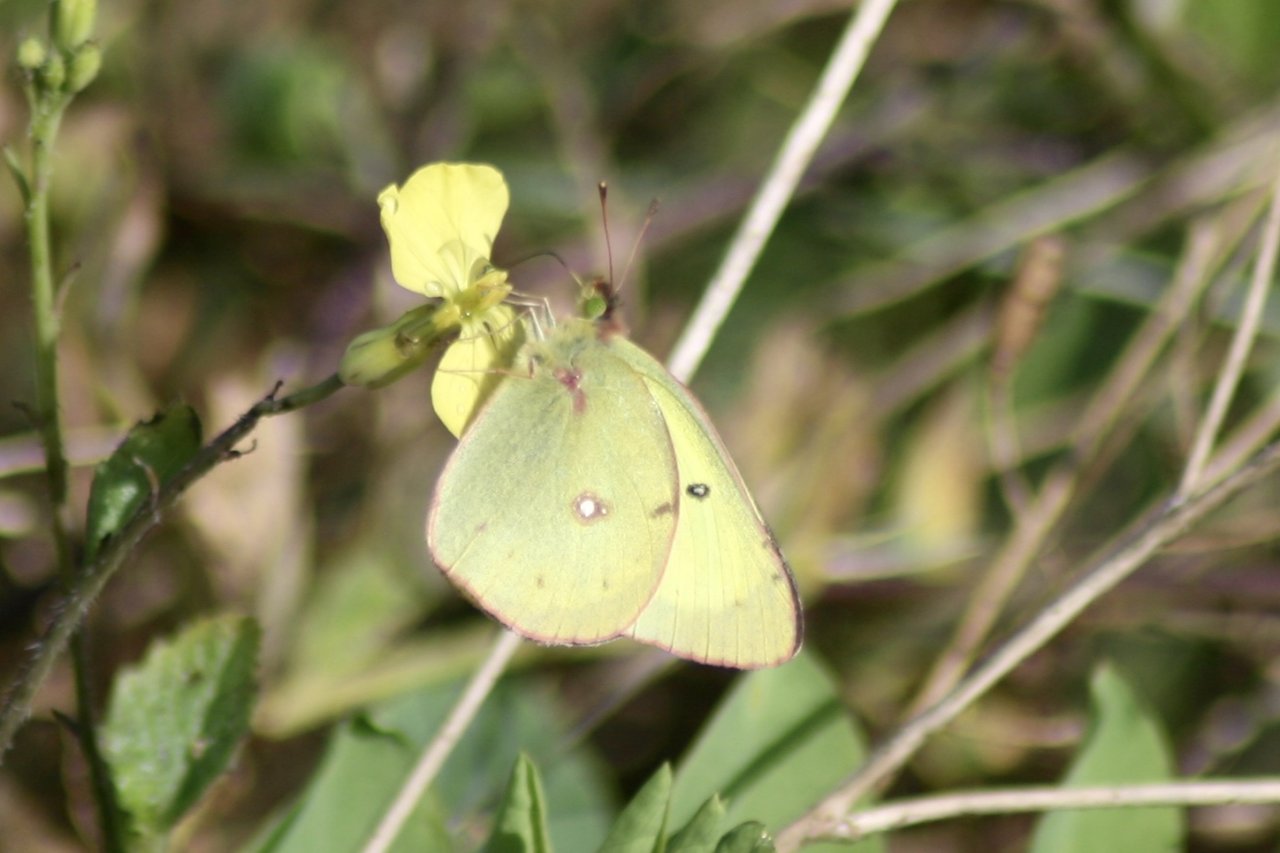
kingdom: Animalia
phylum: Arthropoda
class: Insecta
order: Lepidoptera
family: Pieridae
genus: Colias
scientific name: Colias philodice
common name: Clouded Sulphur
